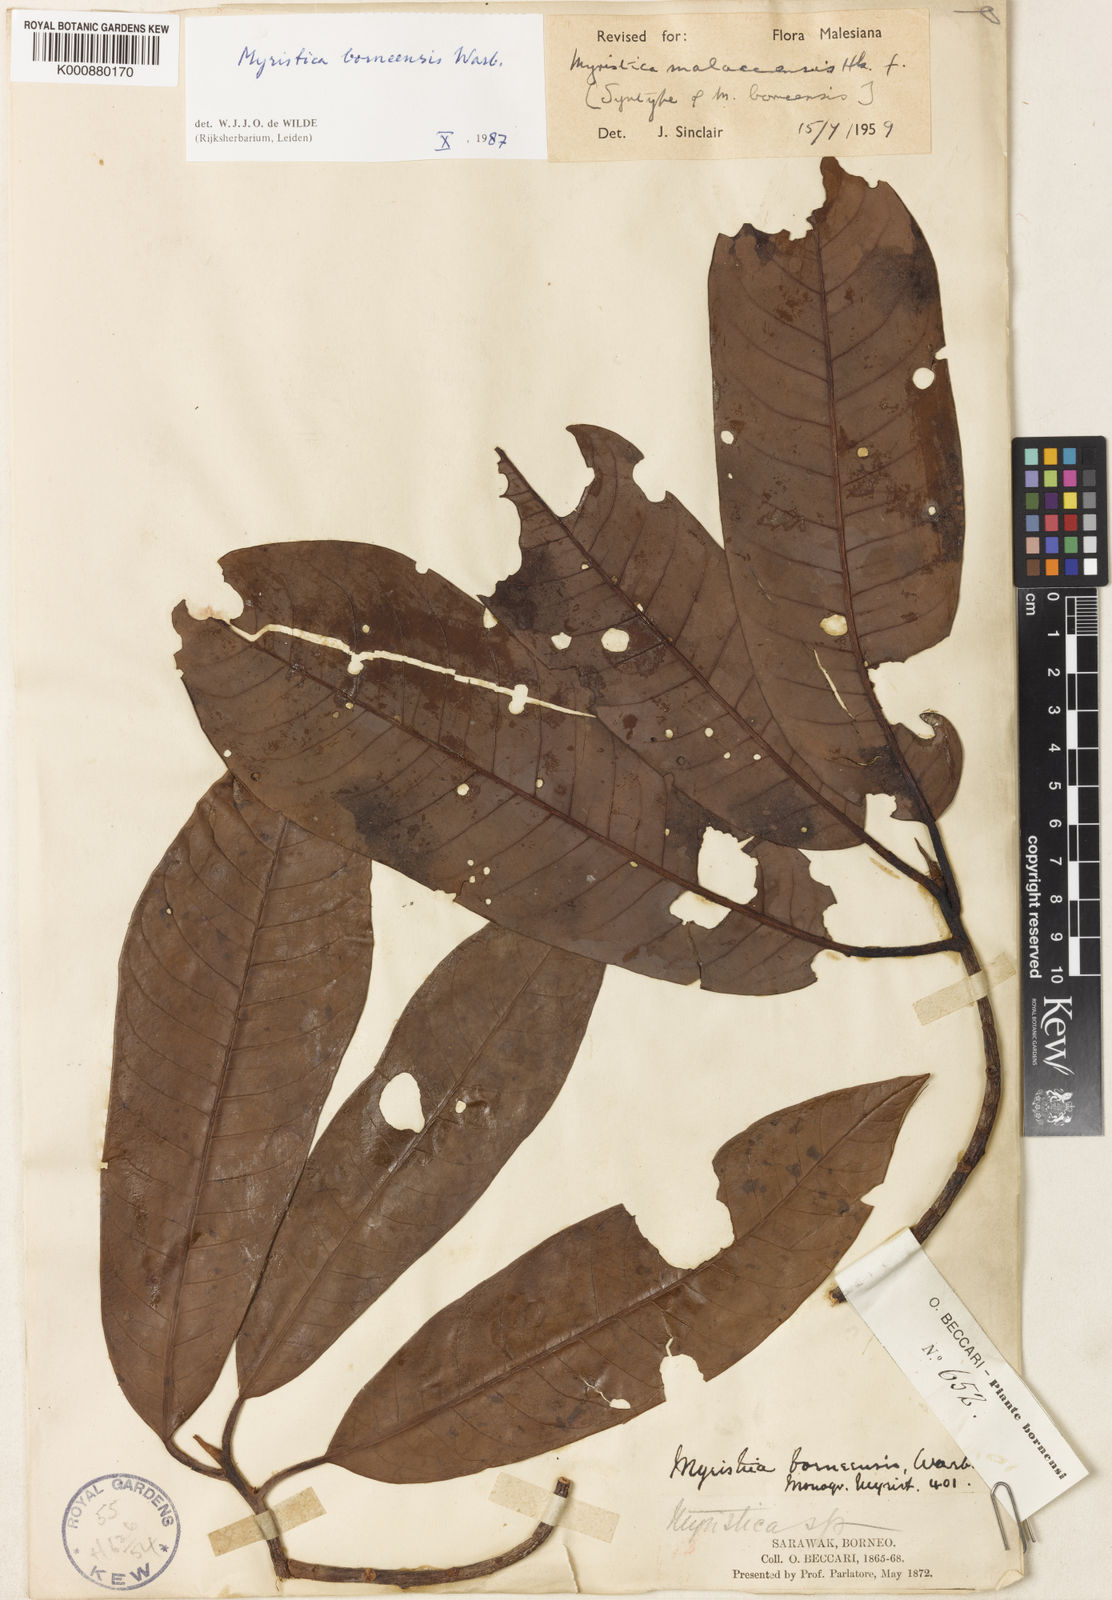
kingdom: Plantae
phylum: Tracheophyta
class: Magnoliopsida
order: Magnoliales
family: Myristicaceae
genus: Myristica
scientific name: Myristica malaccensis
